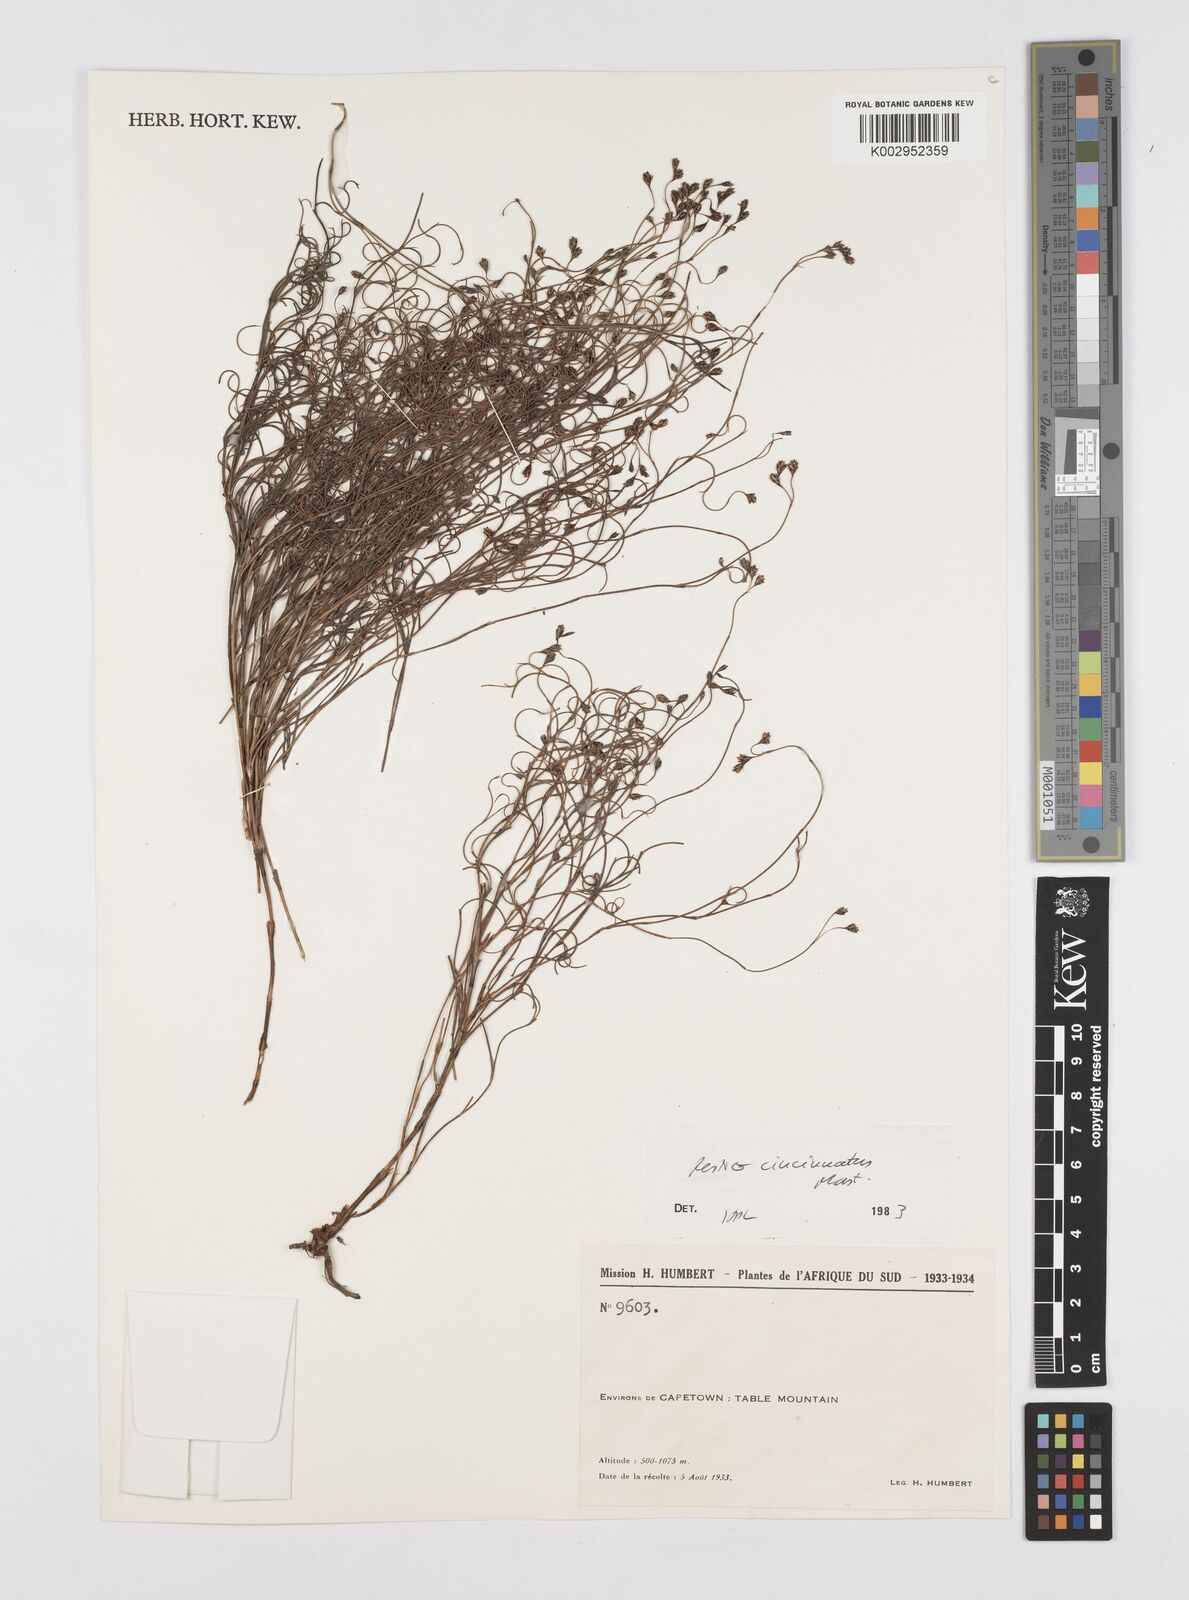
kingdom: Plantae
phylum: Tracheophyta
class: Liliopsida
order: Poales
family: Restionaceae
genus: Restio
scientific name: Restio cincinnatus
